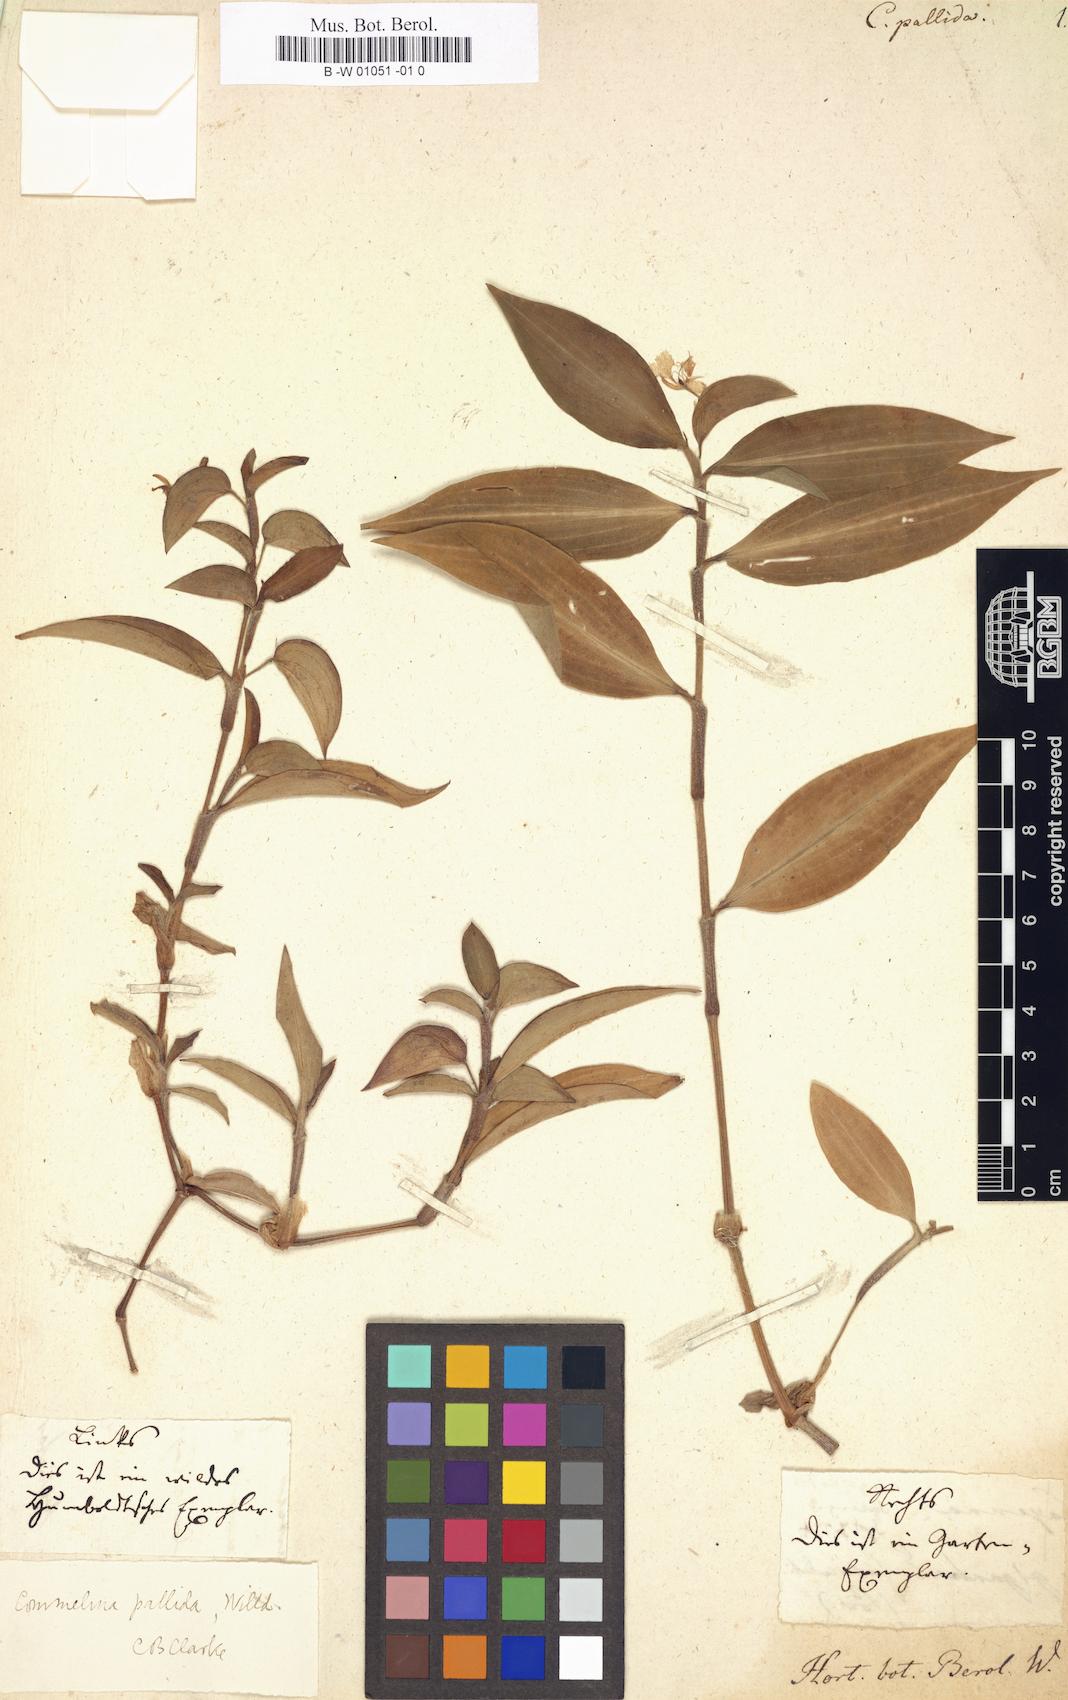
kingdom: Plantae
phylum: Tracheophyta
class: Liliopsida
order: Commelinales
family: Commelinaceae
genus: Commelina
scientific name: Commelina pallida
